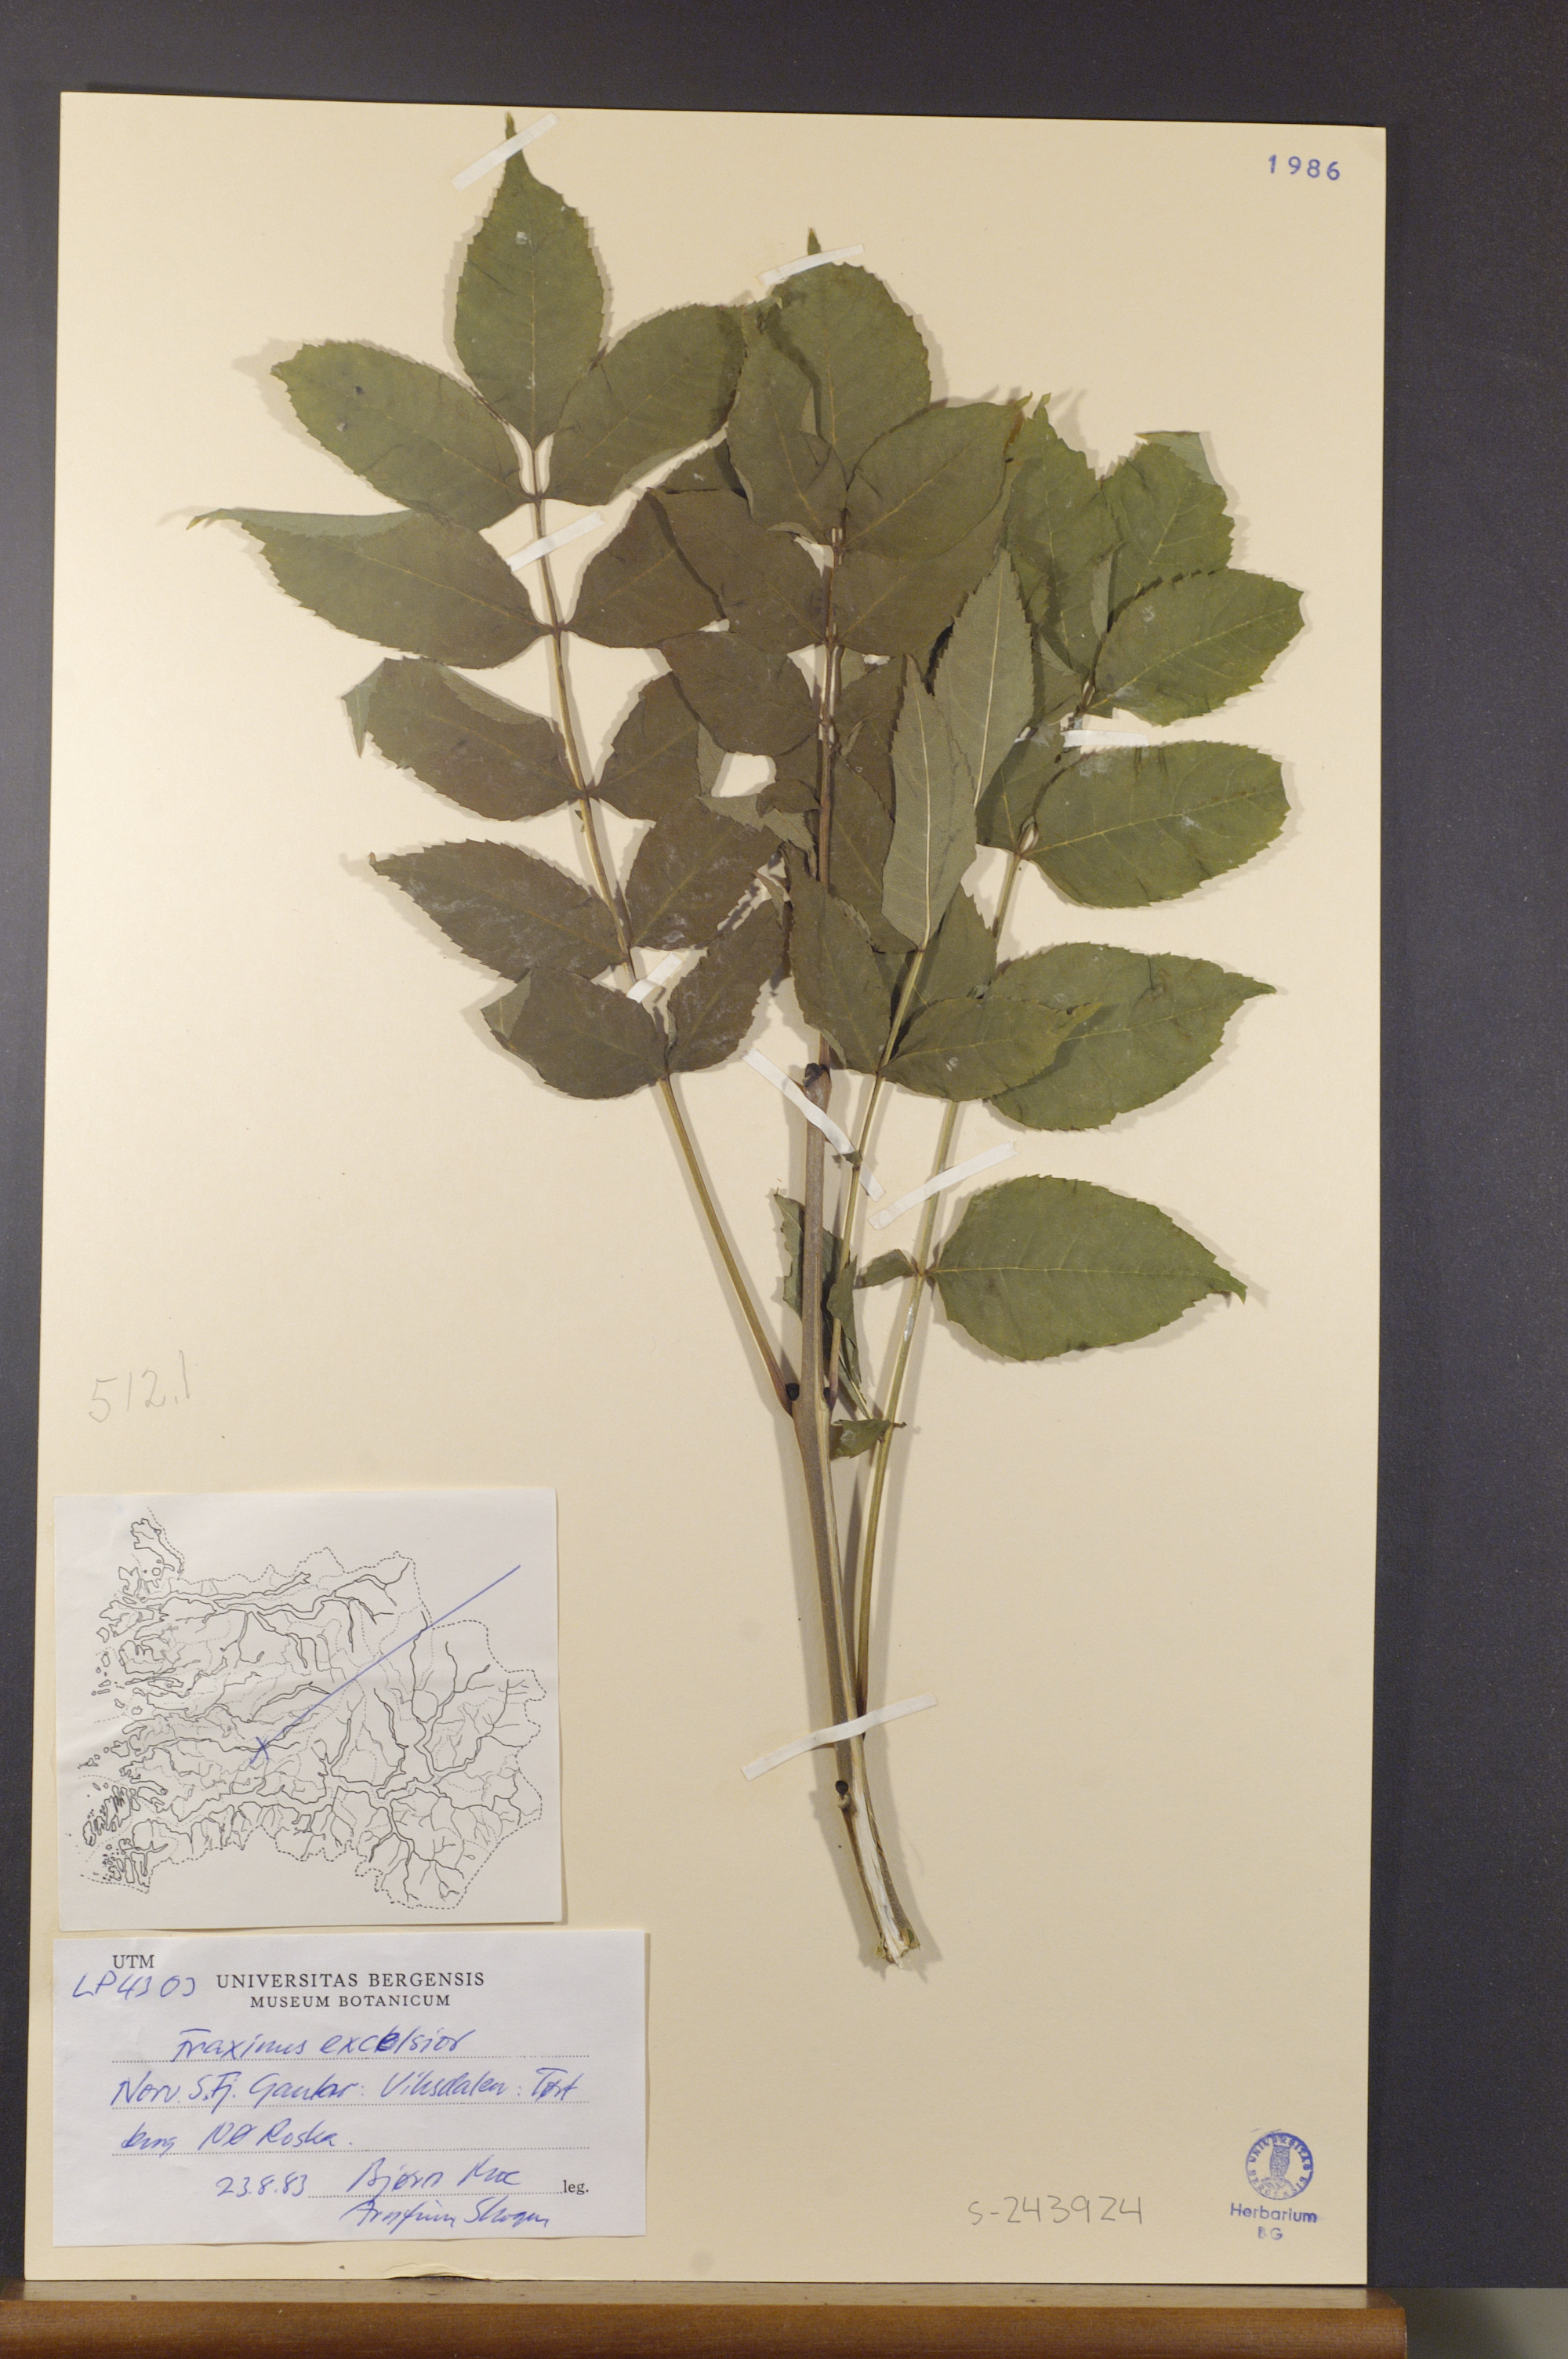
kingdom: Plantae
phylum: Tracheophyta
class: Magnoliopsida
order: Lamiales
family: Oleaceae
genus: Fraxinus
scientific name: Fraxinus excelsior
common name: European ash
